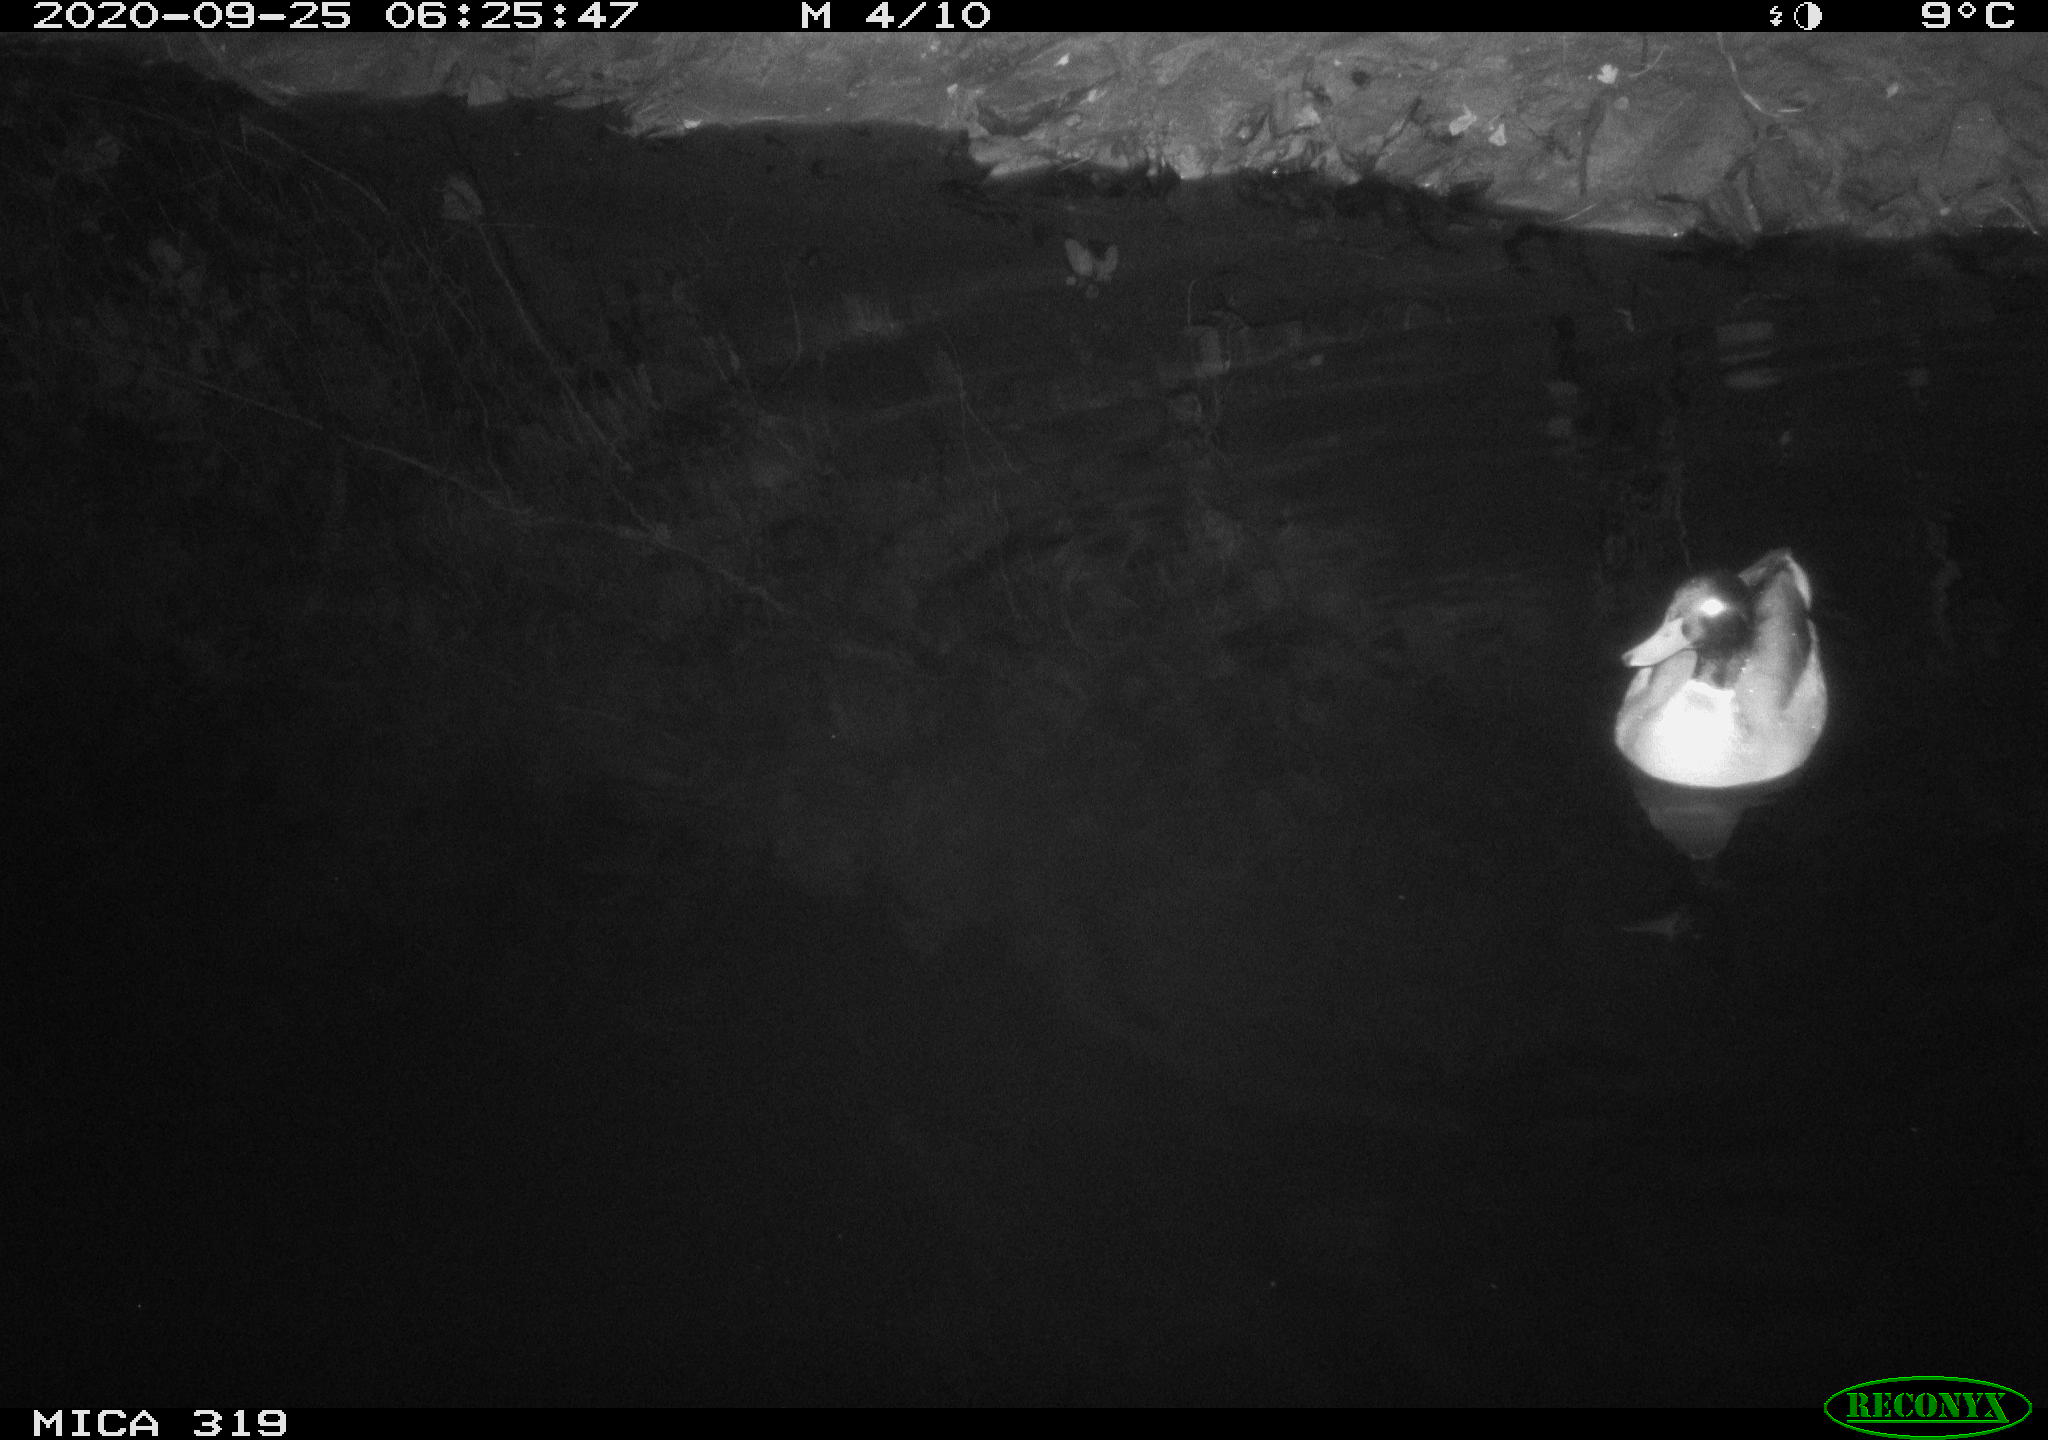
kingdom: Animalia
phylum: Chordata
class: Aves
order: Anseriformes
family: Anatidae
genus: Anas
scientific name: Anas platyrhynchos
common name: Mallard
